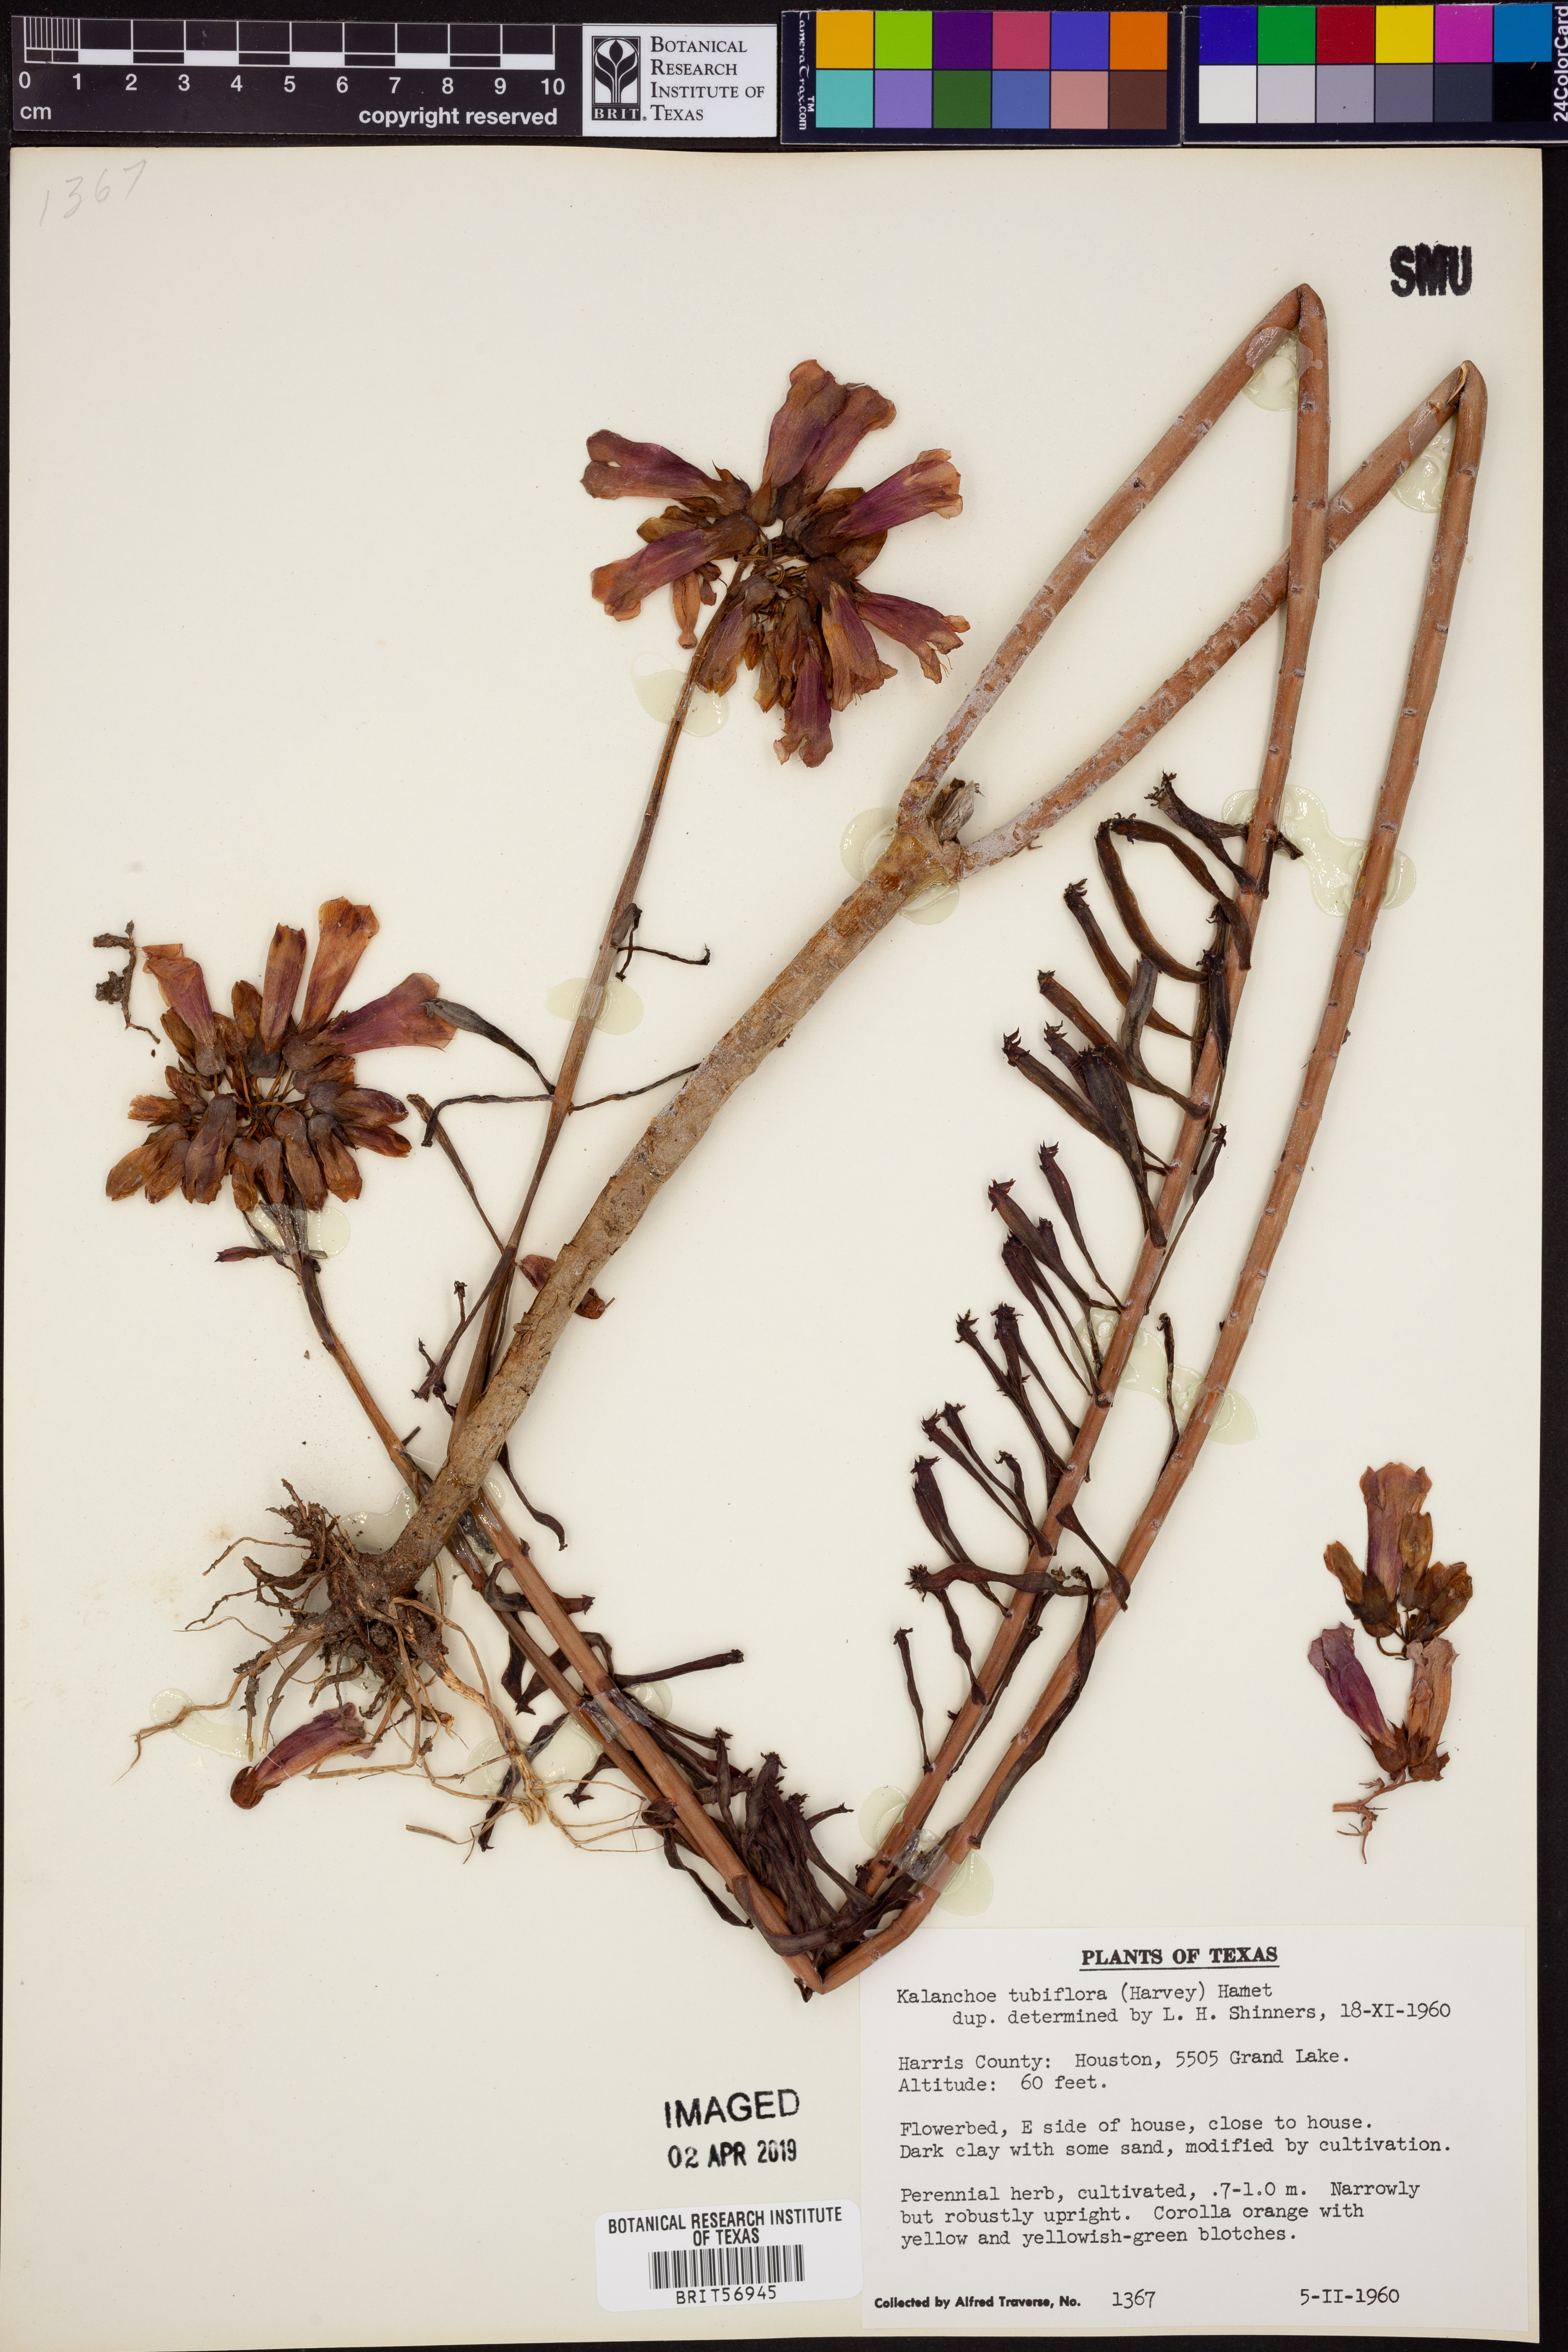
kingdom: Plantae
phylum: Tracheophyta
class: Magnoliopsida
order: Saxifragales
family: Crassulaceae
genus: Kalanchoe
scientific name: Kalanchoe delagoensis
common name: Chandelier plant
